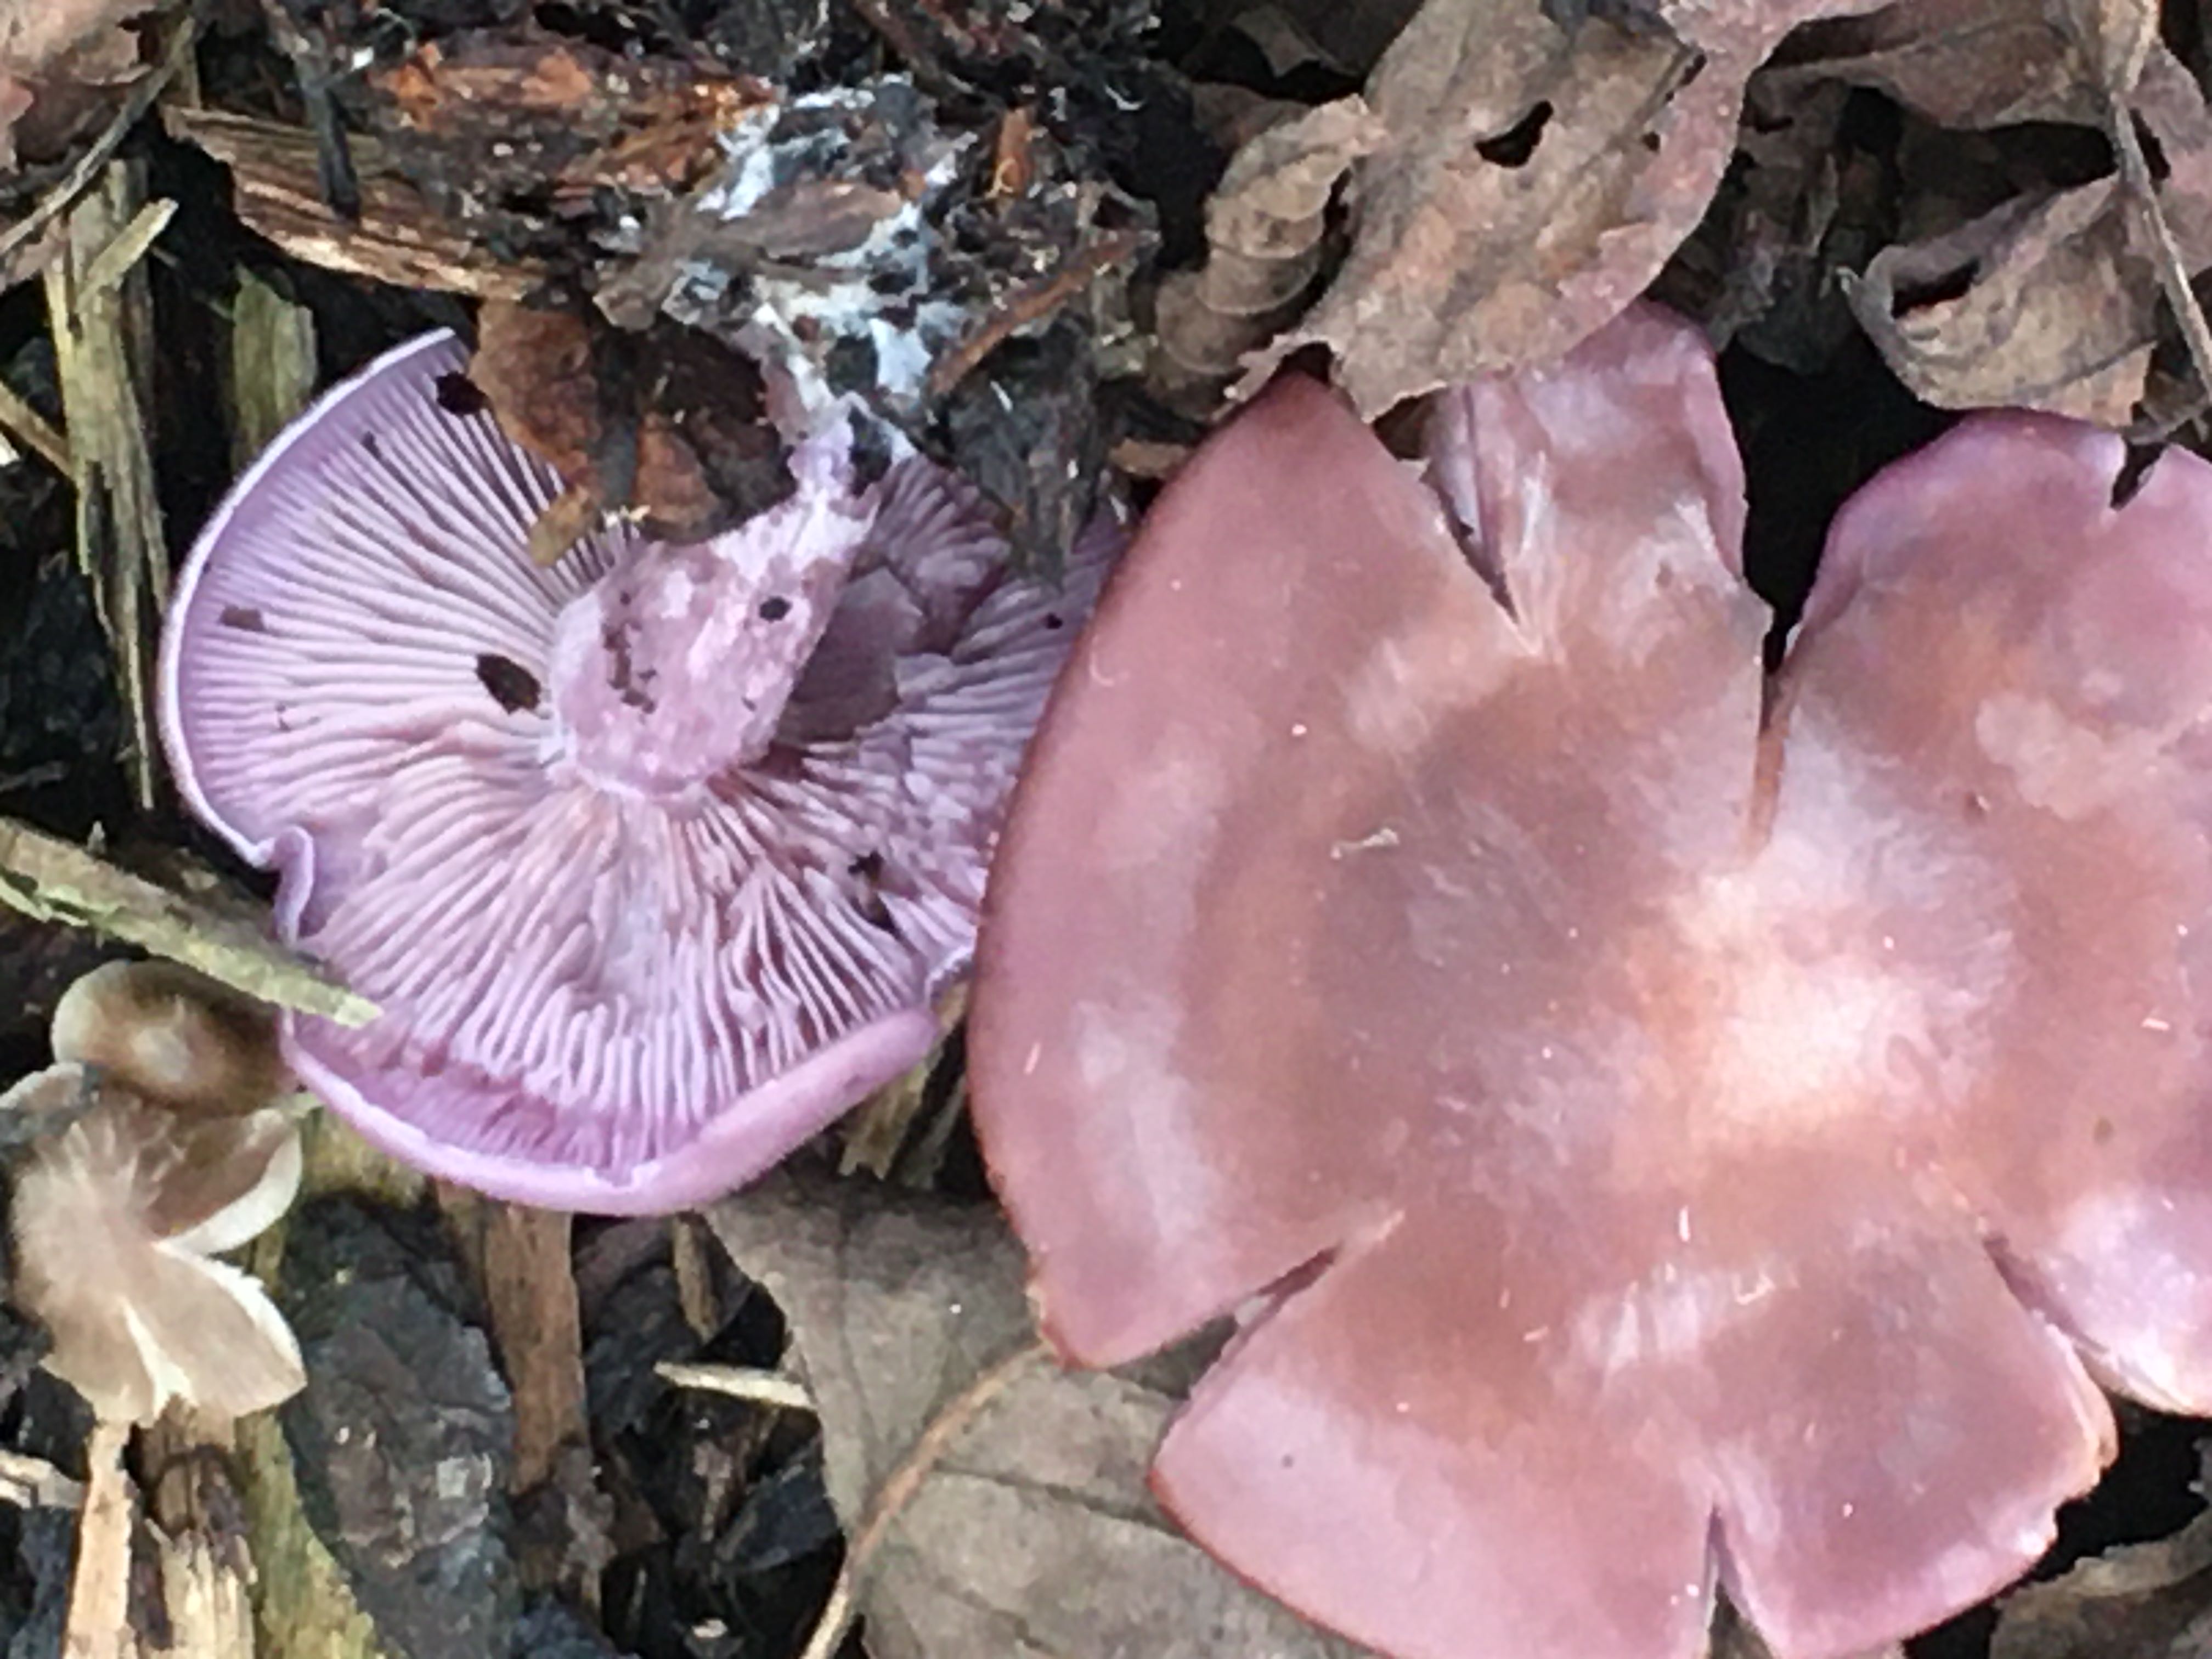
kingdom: Fungi
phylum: Basidiomycota
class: Agaricomycetes
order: Agaricales
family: Tricholomataceae
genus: Lepista
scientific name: Lepista nuda
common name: violet hekseringshat
